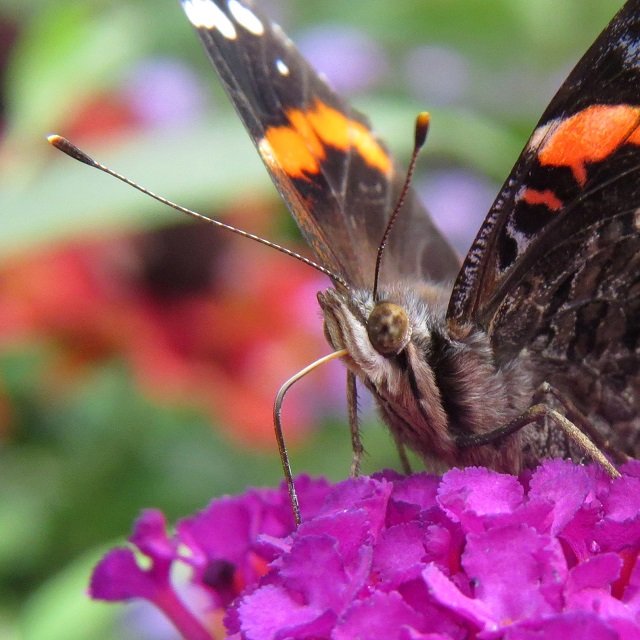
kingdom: Animalia
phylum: Arthropoda
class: Insecta
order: Lepidoptera
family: Nymphalidae
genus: Vanessa
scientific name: Vanessa atalanta
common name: Red Admiral
